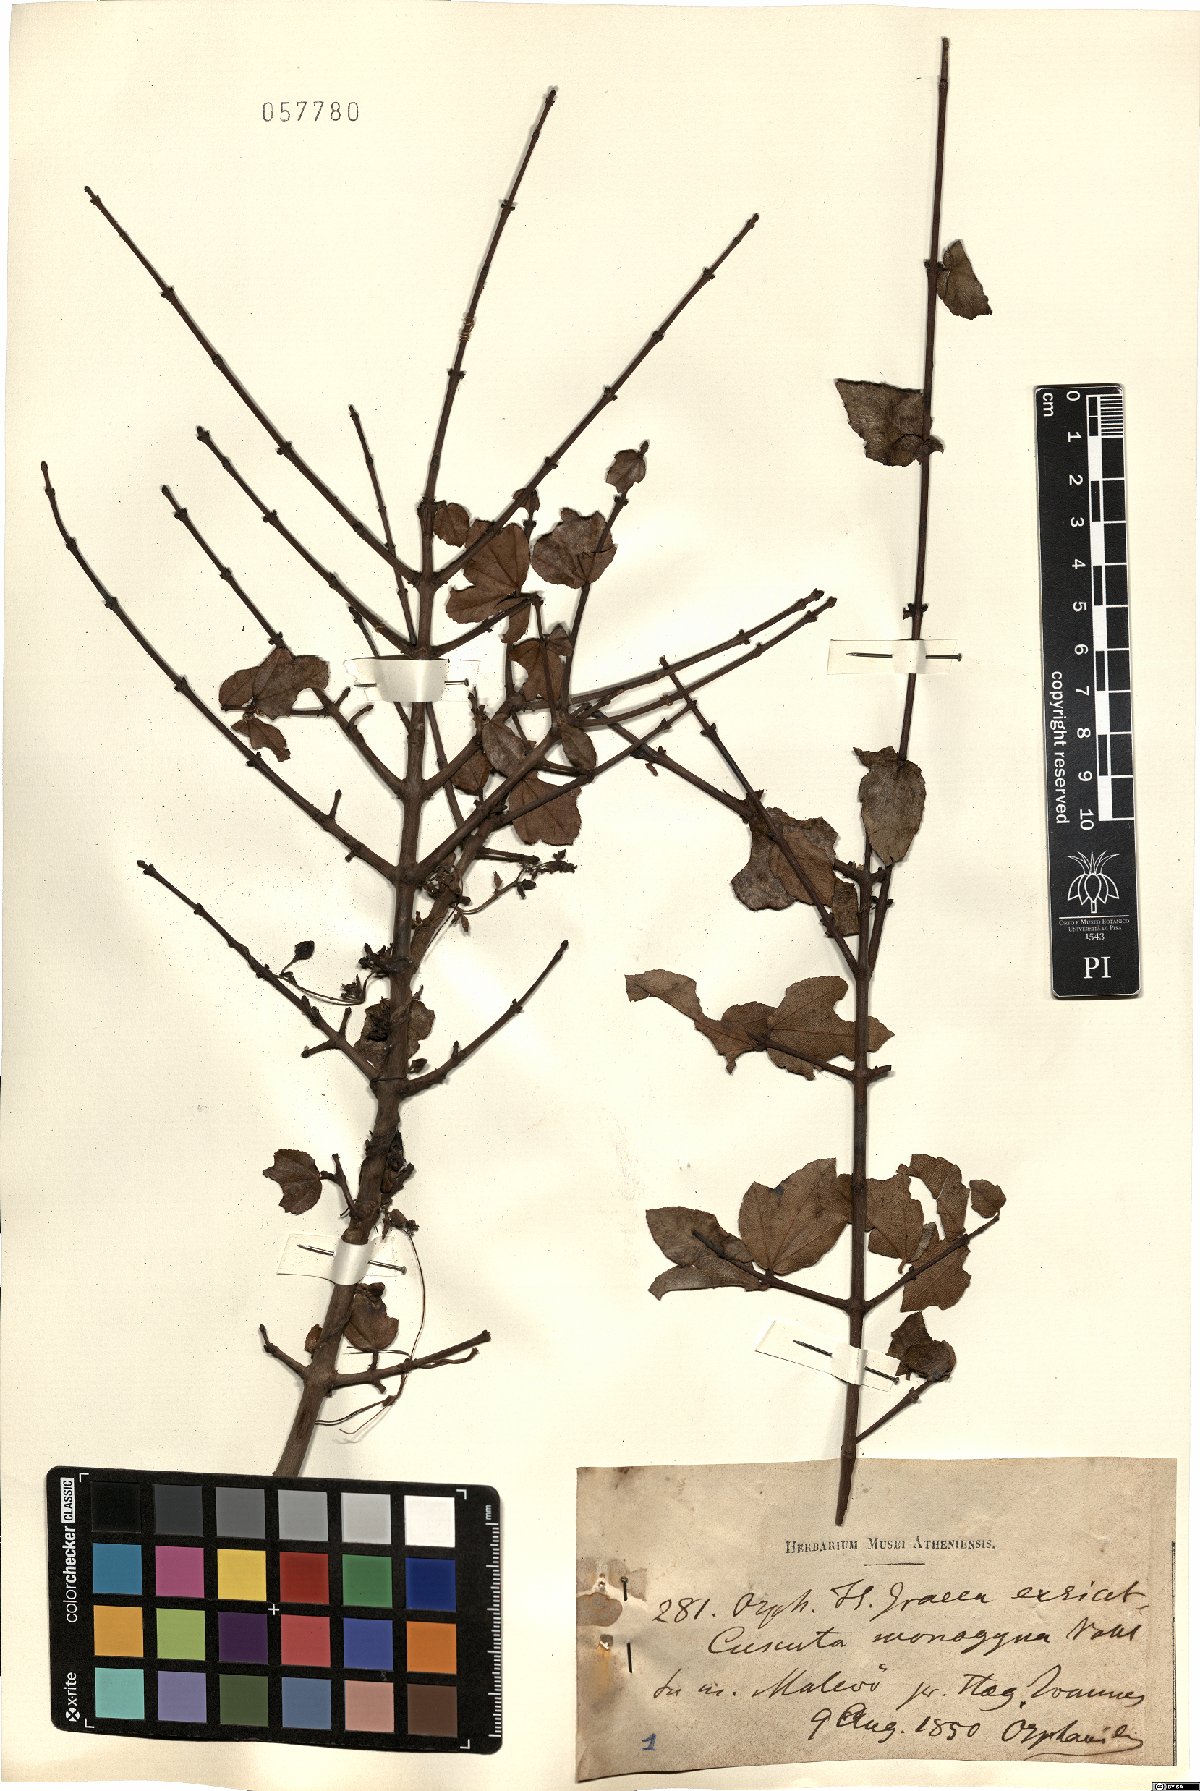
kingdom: Plantae
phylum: Tracheophyta
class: Magnoliopsida
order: Solanales
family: Convolvulaceae
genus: Cuscuta
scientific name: Cuscuta monogyna
